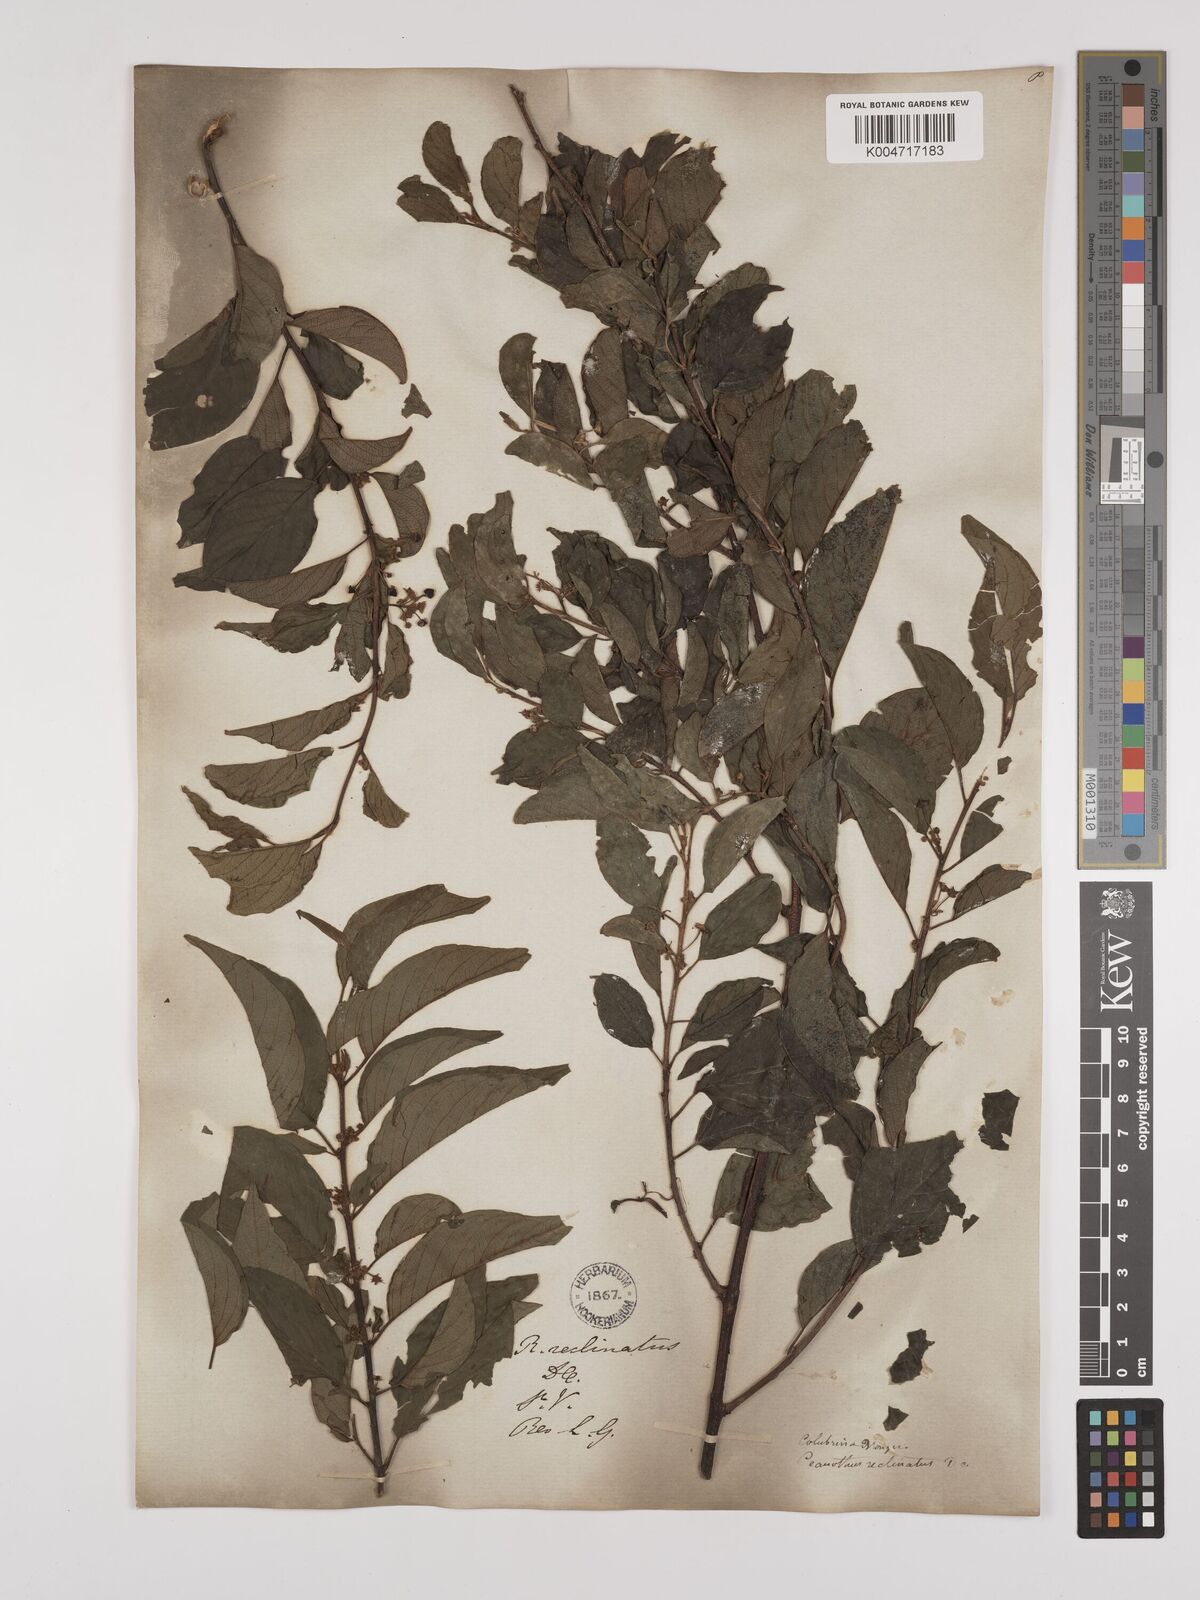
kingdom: Plantae
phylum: Tracheophyta
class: Magnoliopsida
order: Rosales
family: Rhamnaceae
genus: Colubrina
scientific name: Colubrina elliptica
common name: Soldierwood
